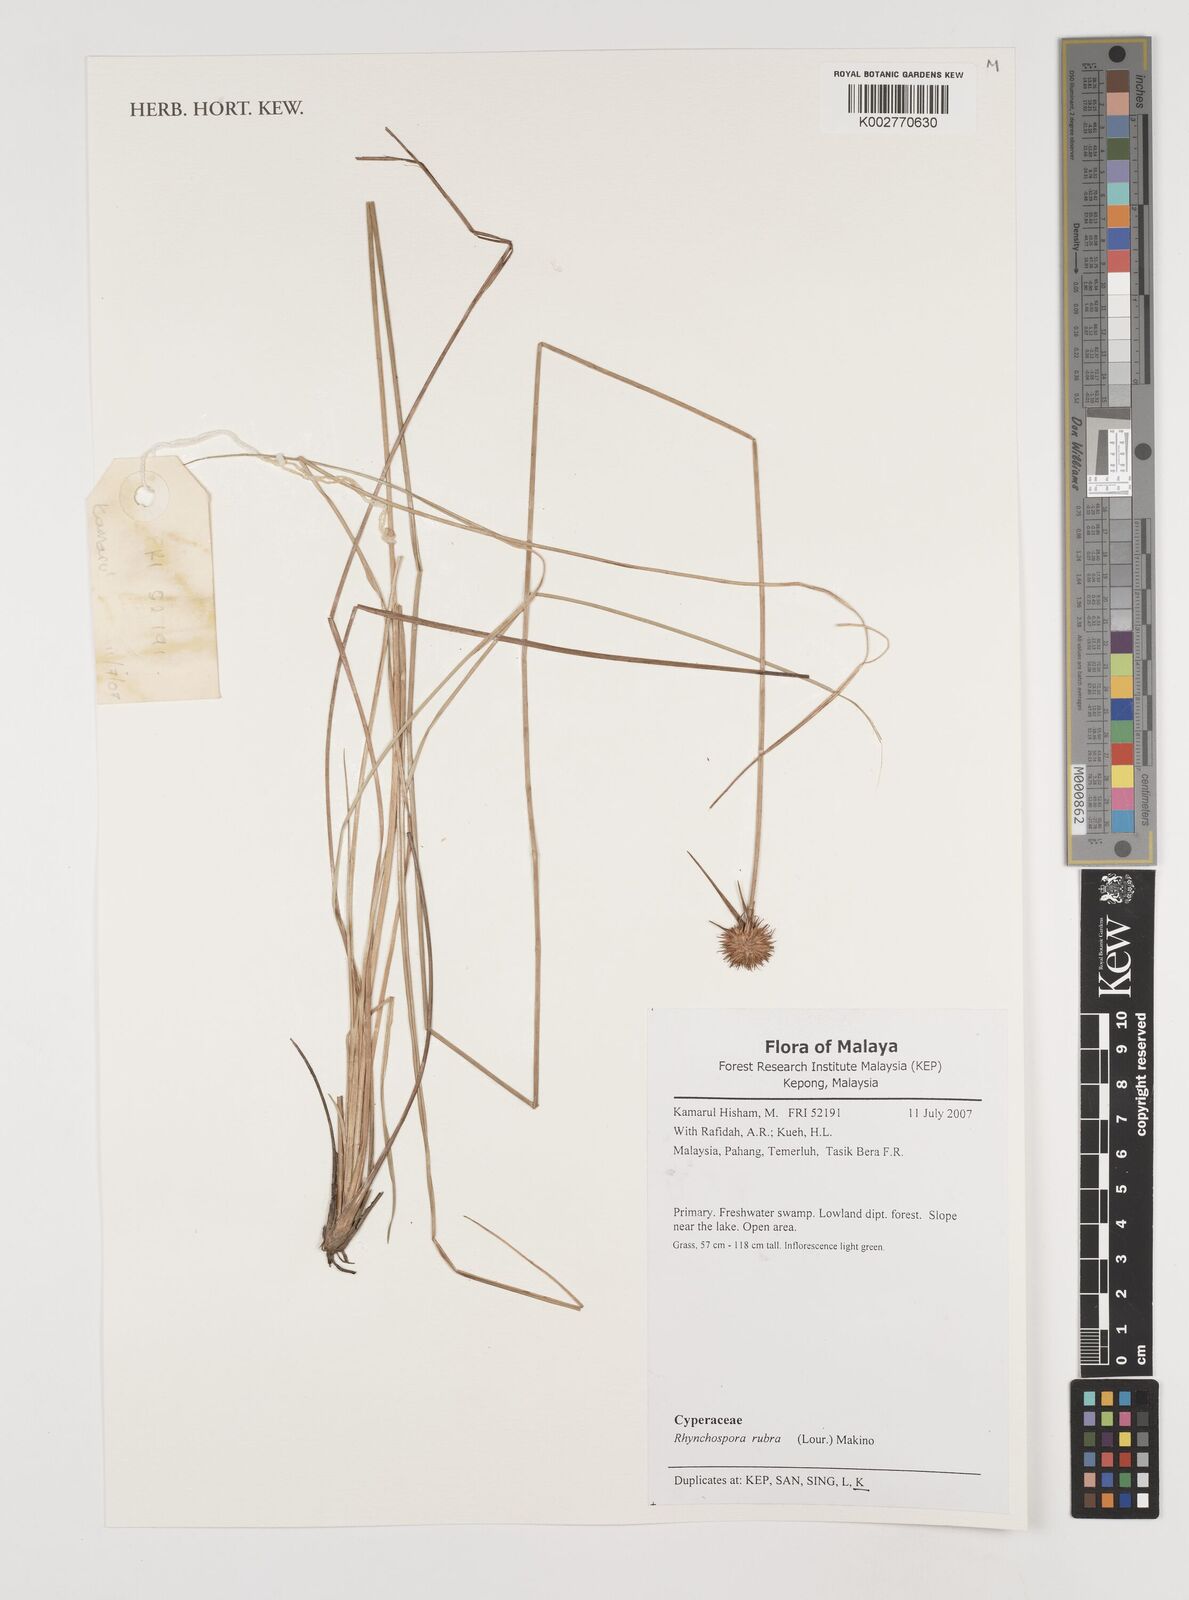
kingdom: Plantae
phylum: Tracheophyta
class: Liliopsida
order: Poales
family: Cyperaceae
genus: Rhynchospora
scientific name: Rhynchospora rubra
